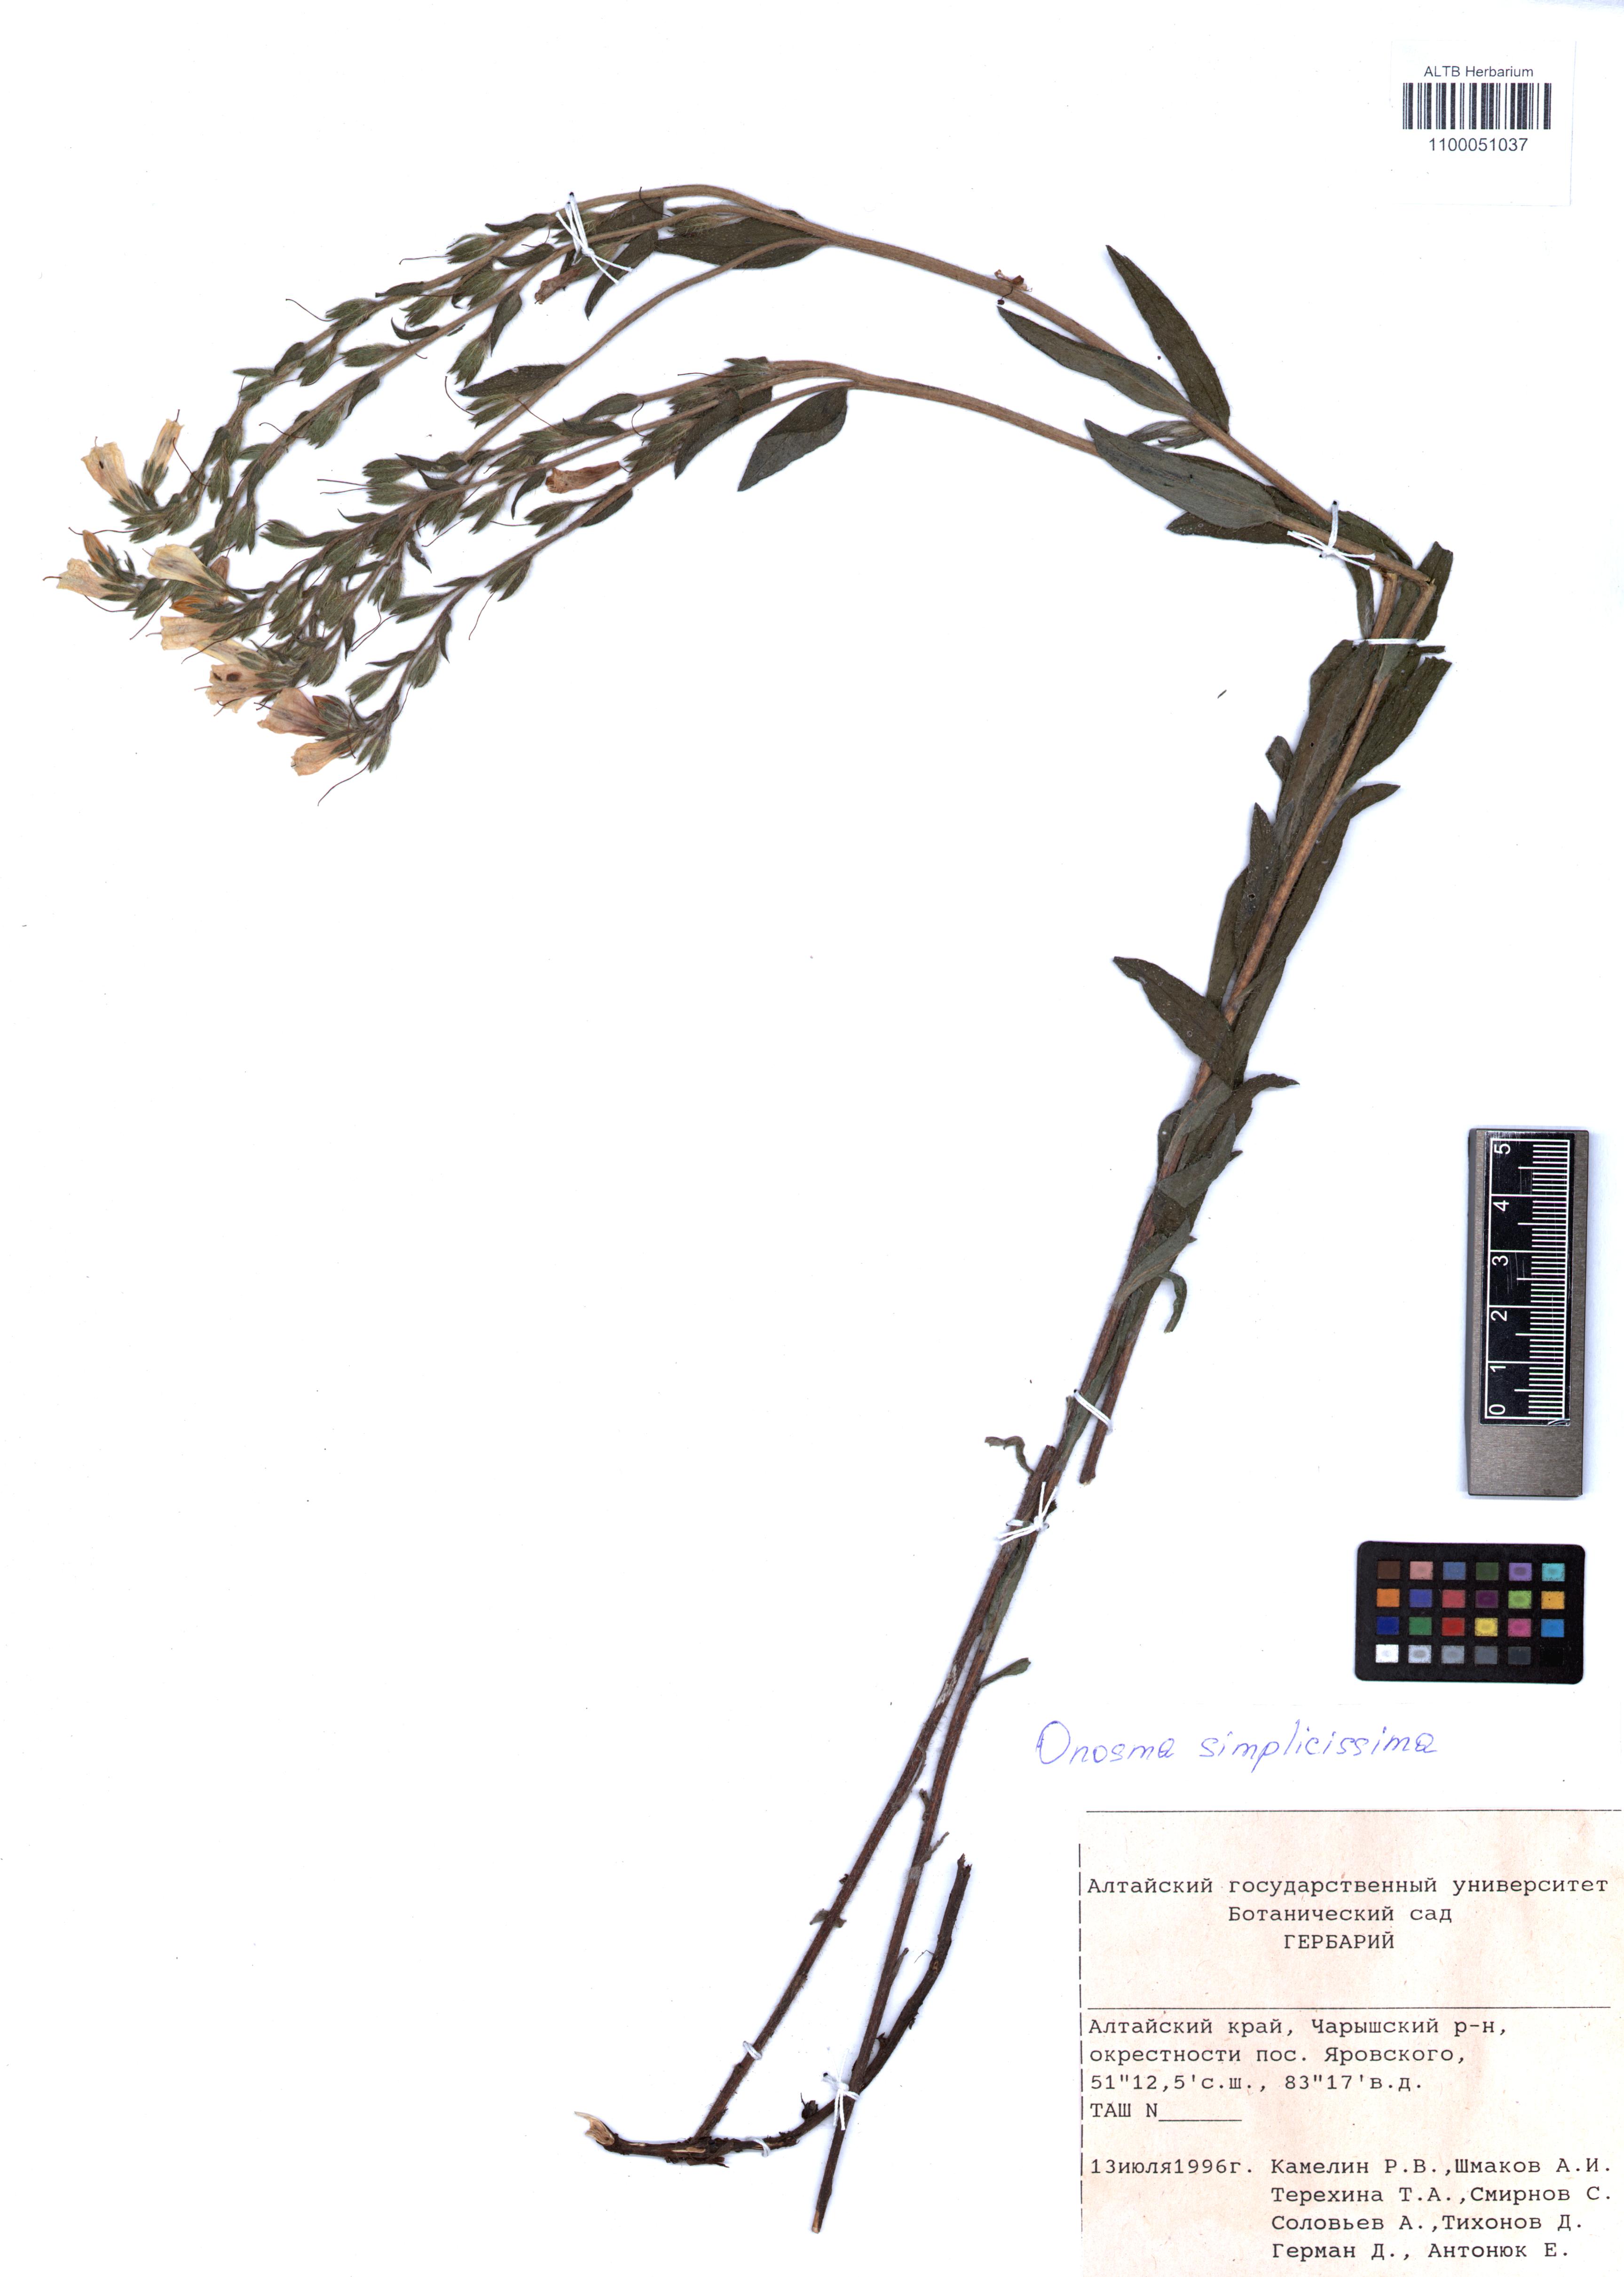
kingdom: Plantae
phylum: Tracheophyta
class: Magnoliopsida
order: Boraginales
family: Boraginaceae
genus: Onosma
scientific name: Onosma simplicissima
